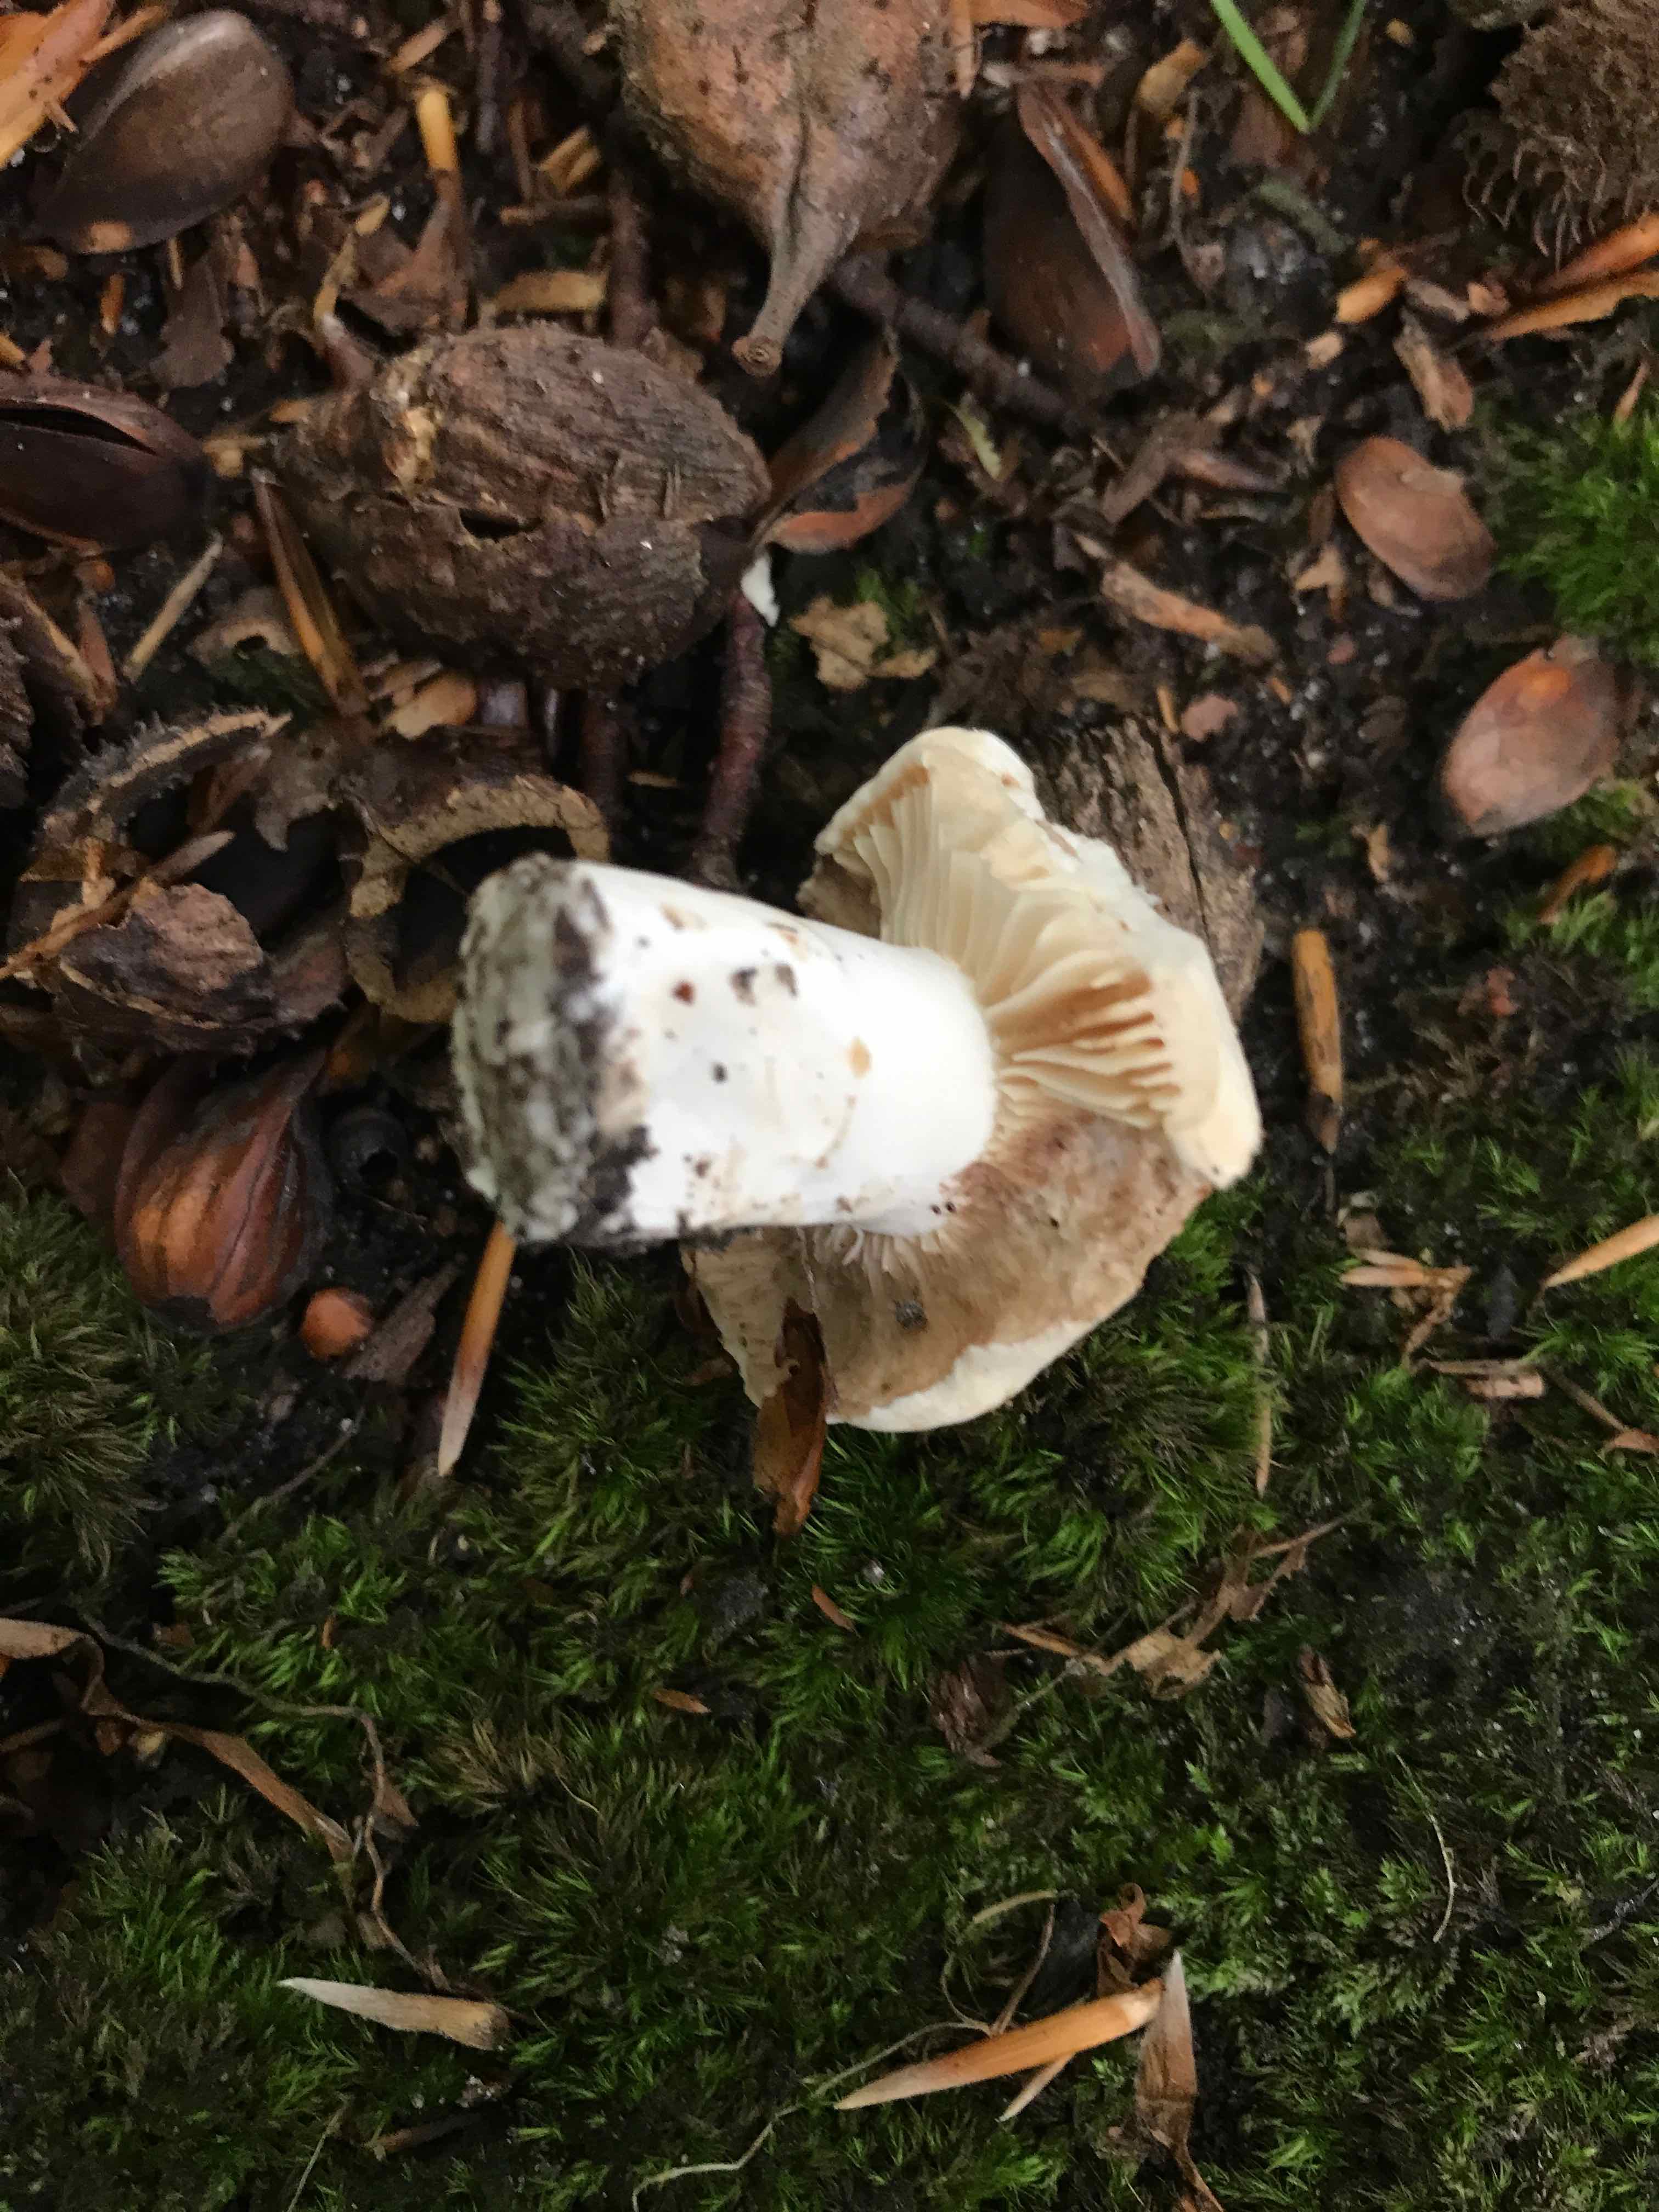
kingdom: Fungi
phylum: Basidiomycota
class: Agaricomycetes
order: Russulales
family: Russulaceae
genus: Russula
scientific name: Russula fellea
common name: galde-skørhat
